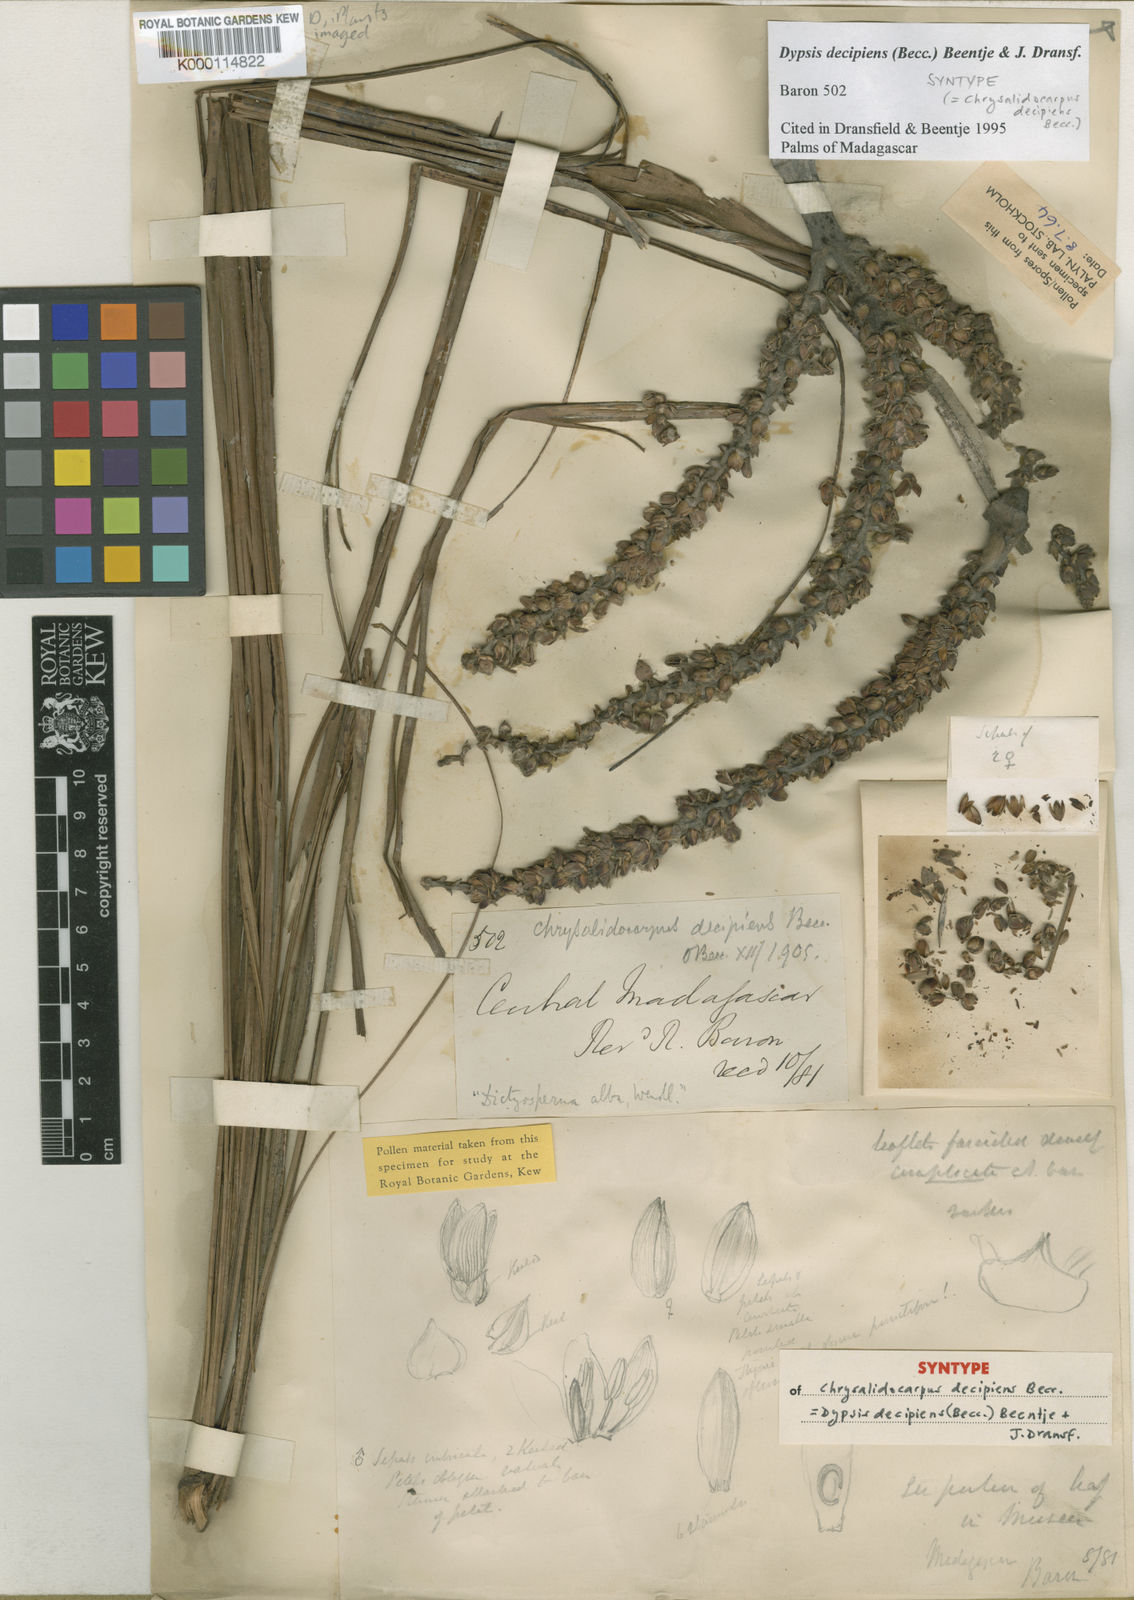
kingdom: Plantae
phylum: Tracheophyta
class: Liliopsida
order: Arecales
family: Arecaceae
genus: Dypsis
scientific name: Dypsis decipiens
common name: Manambe palm
